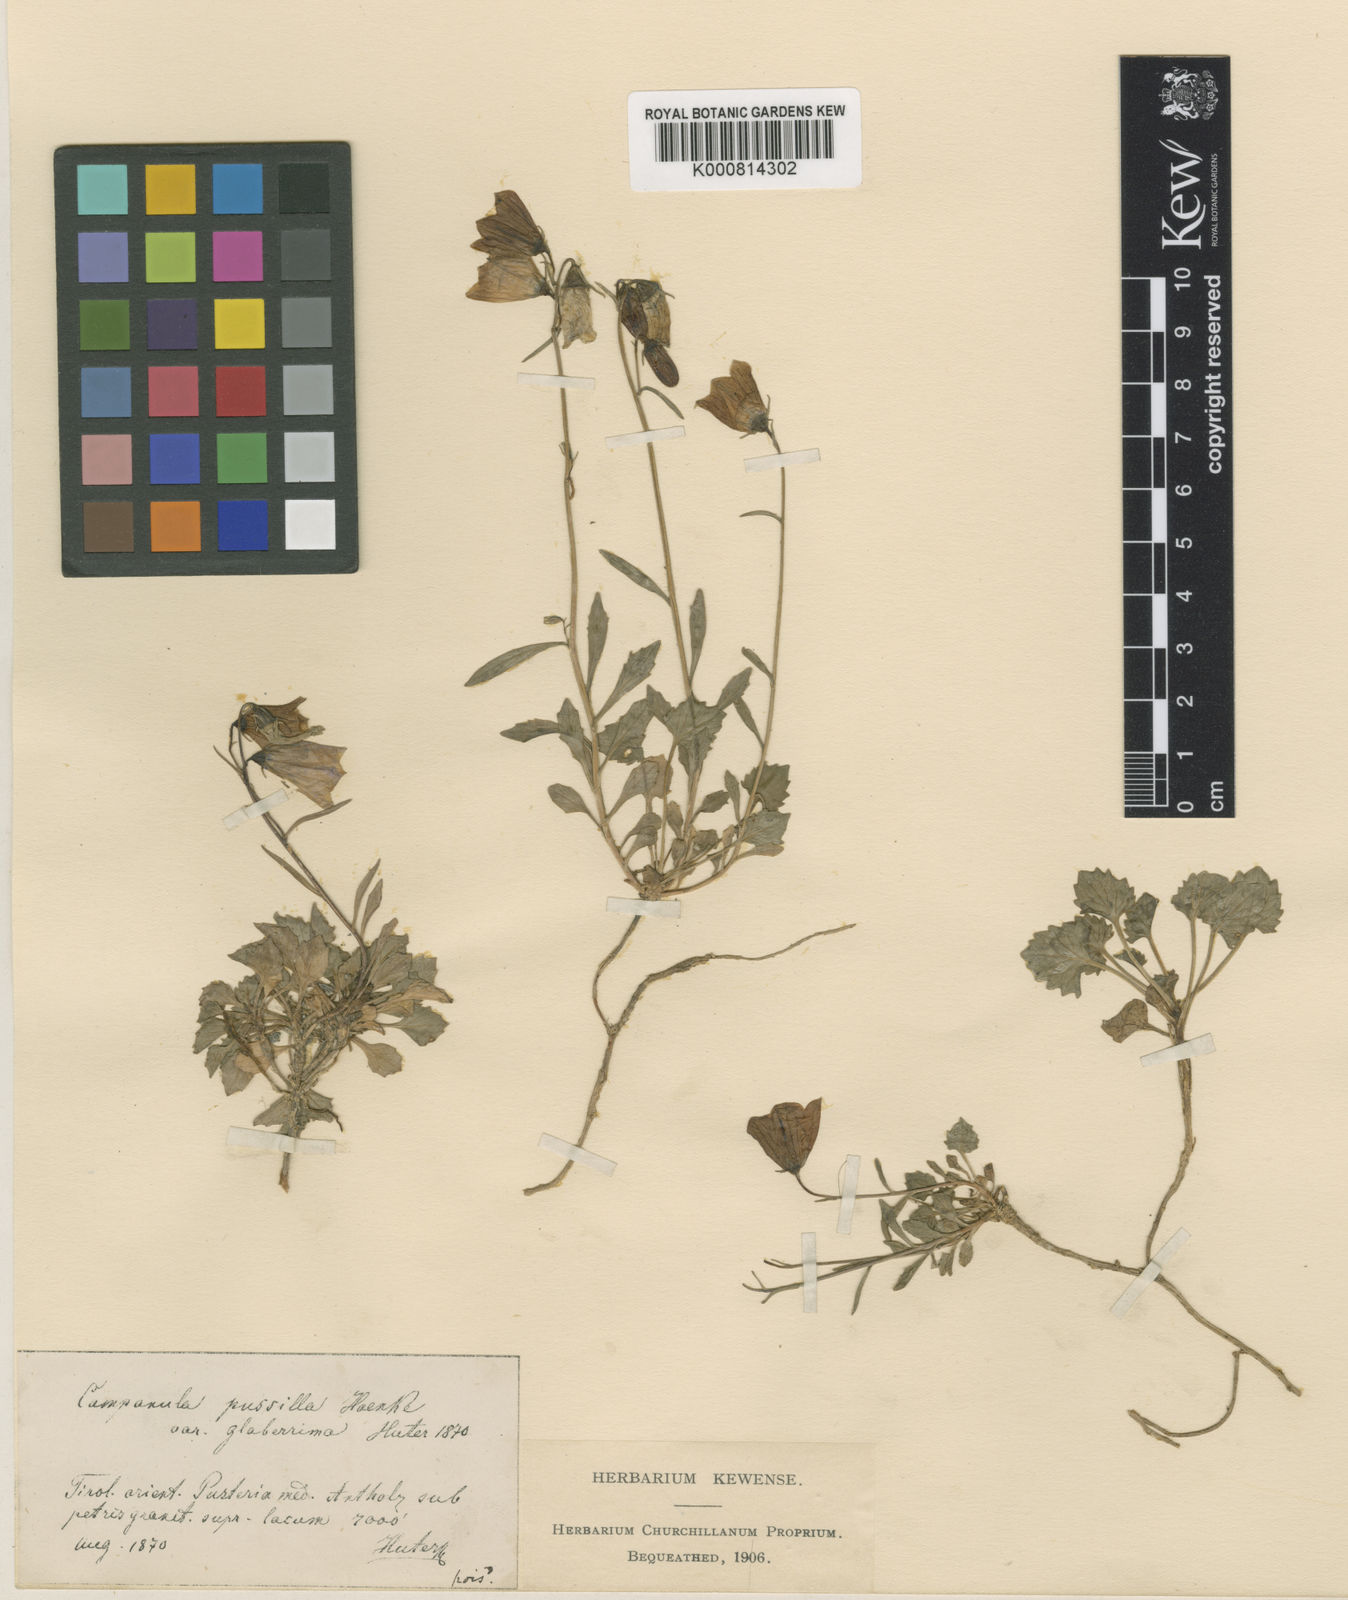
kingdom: Plantae
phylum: Tracheophyta
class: Magnoliopsida
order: Asterales
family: Campanulaceae
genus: Campanula
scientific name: Campanula cochleariifolia
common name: Fairies'-thimbles
